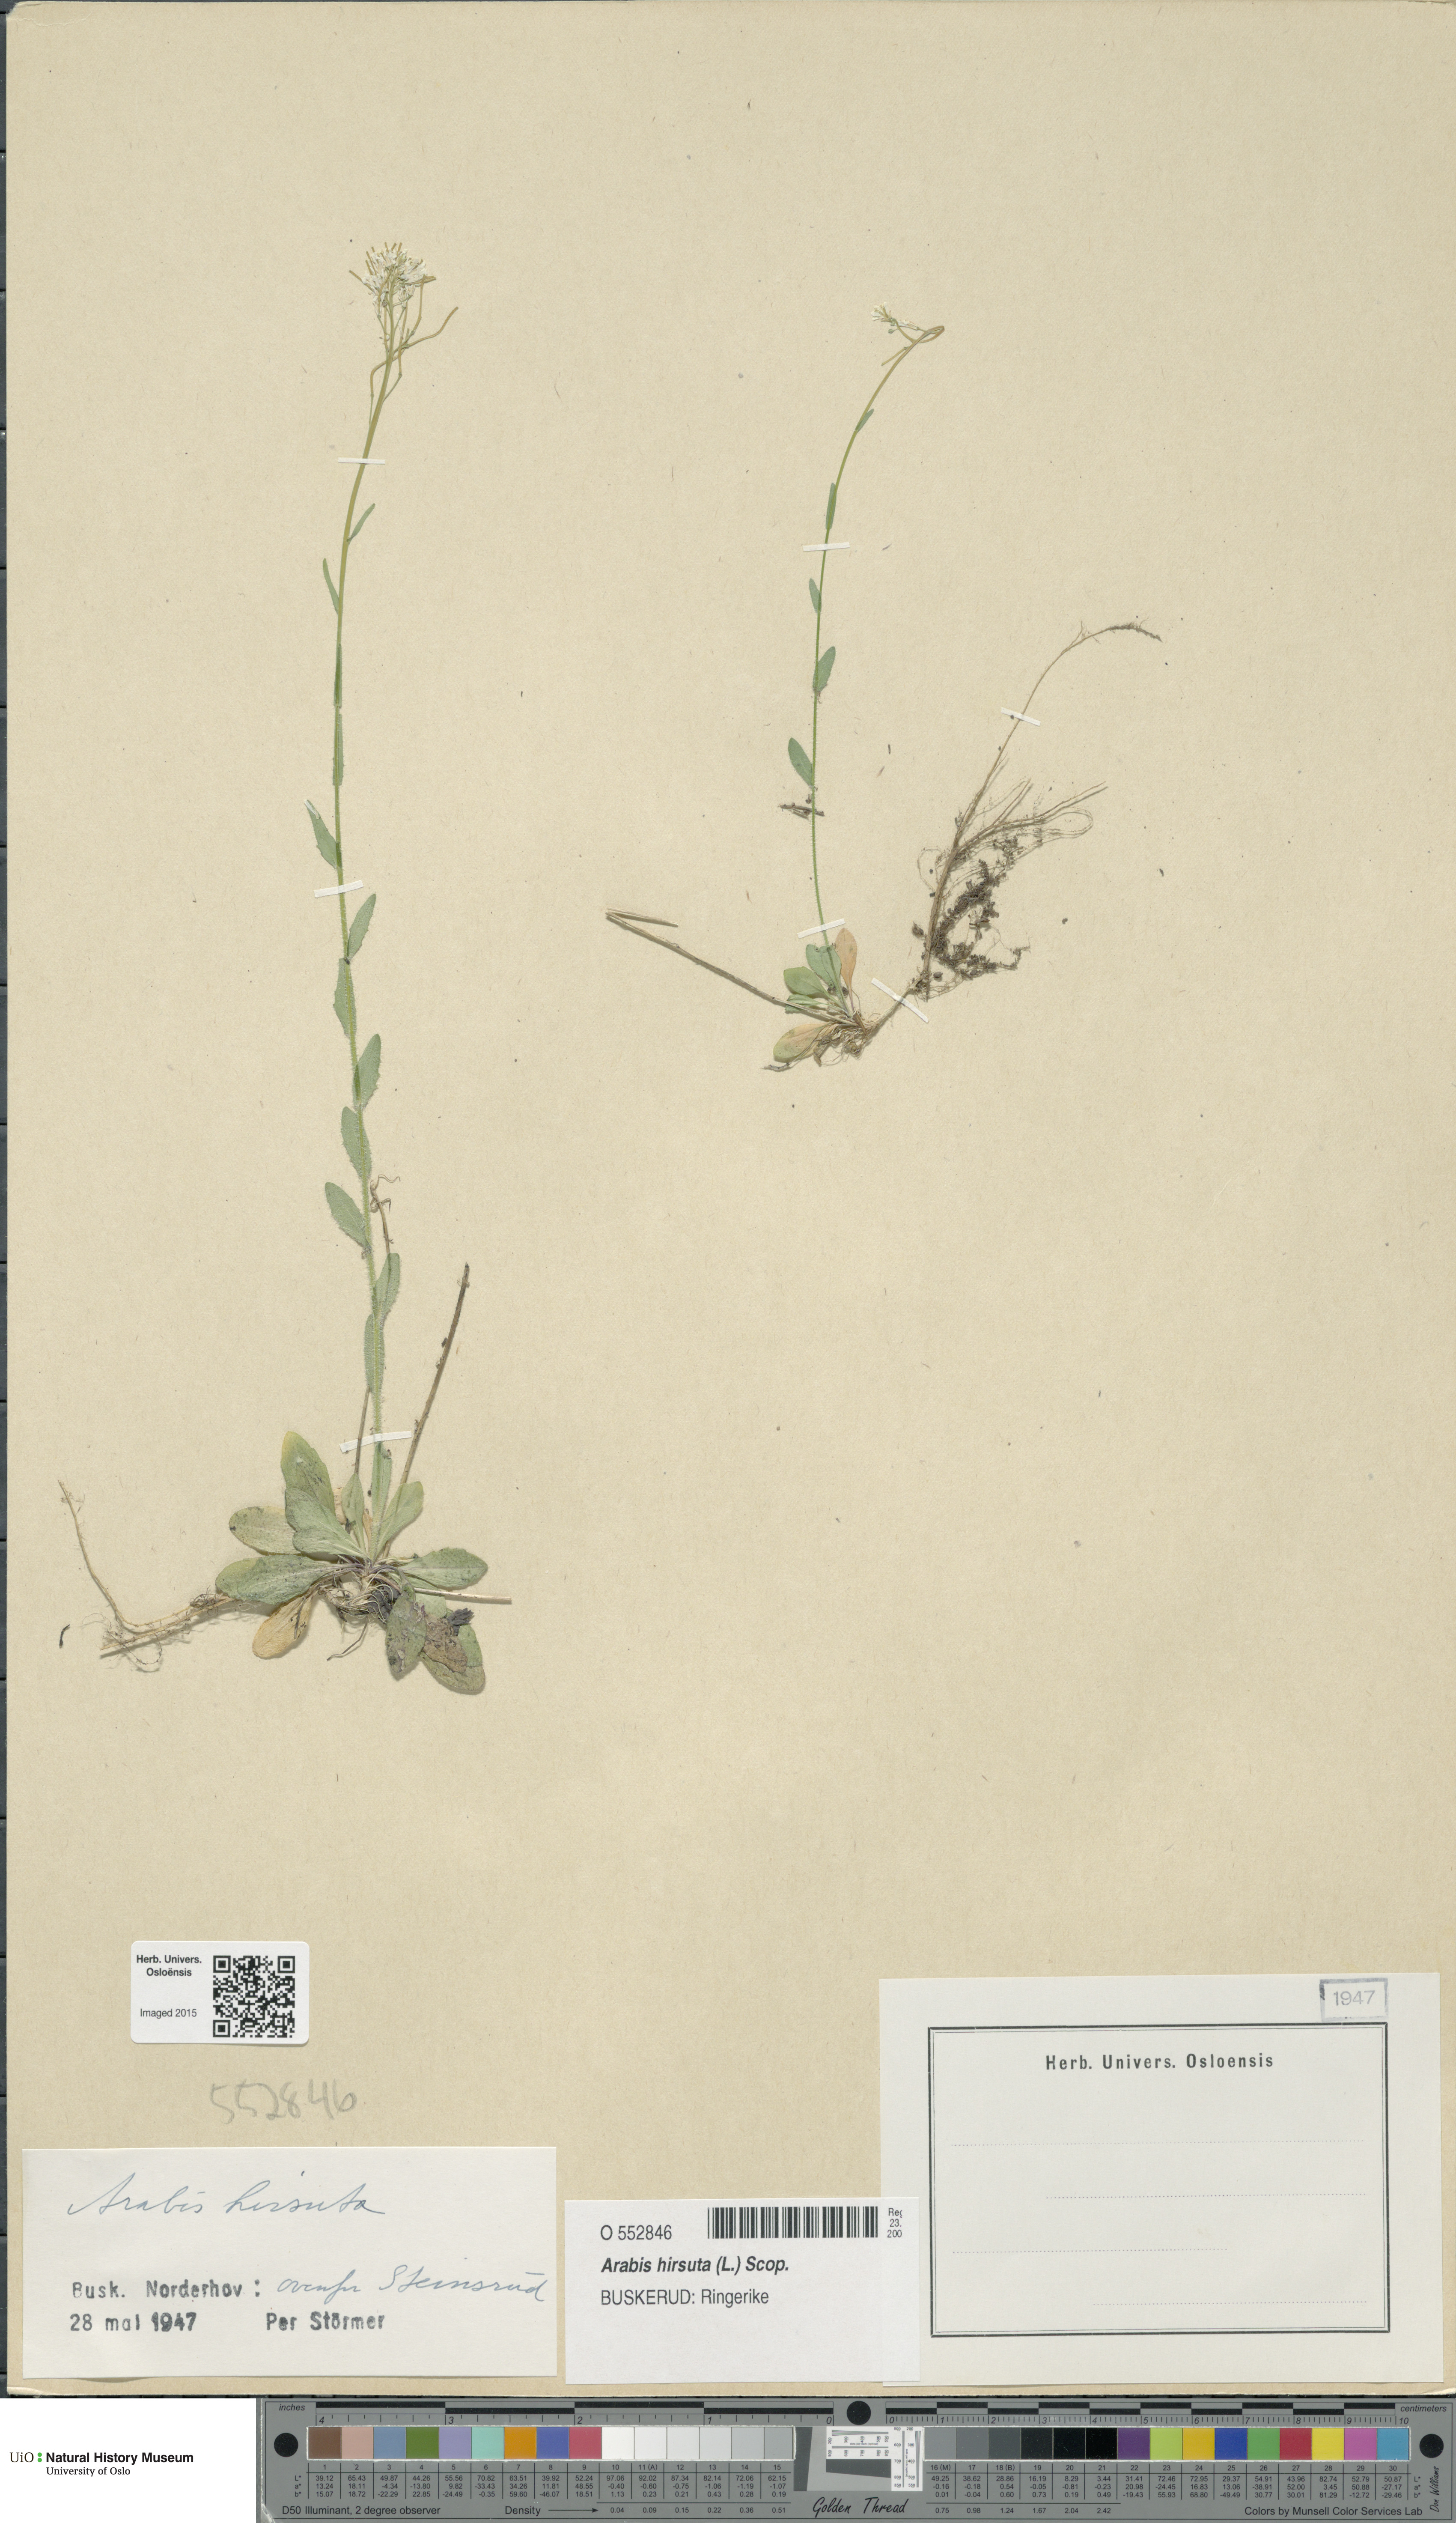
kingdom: Plantae
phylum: Tracheophyta
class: Magnoliopsida
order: Brassicales
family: Brassicaceae
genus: Arabis
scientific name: Arabis hirsuta
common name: Hairy rock-cress
